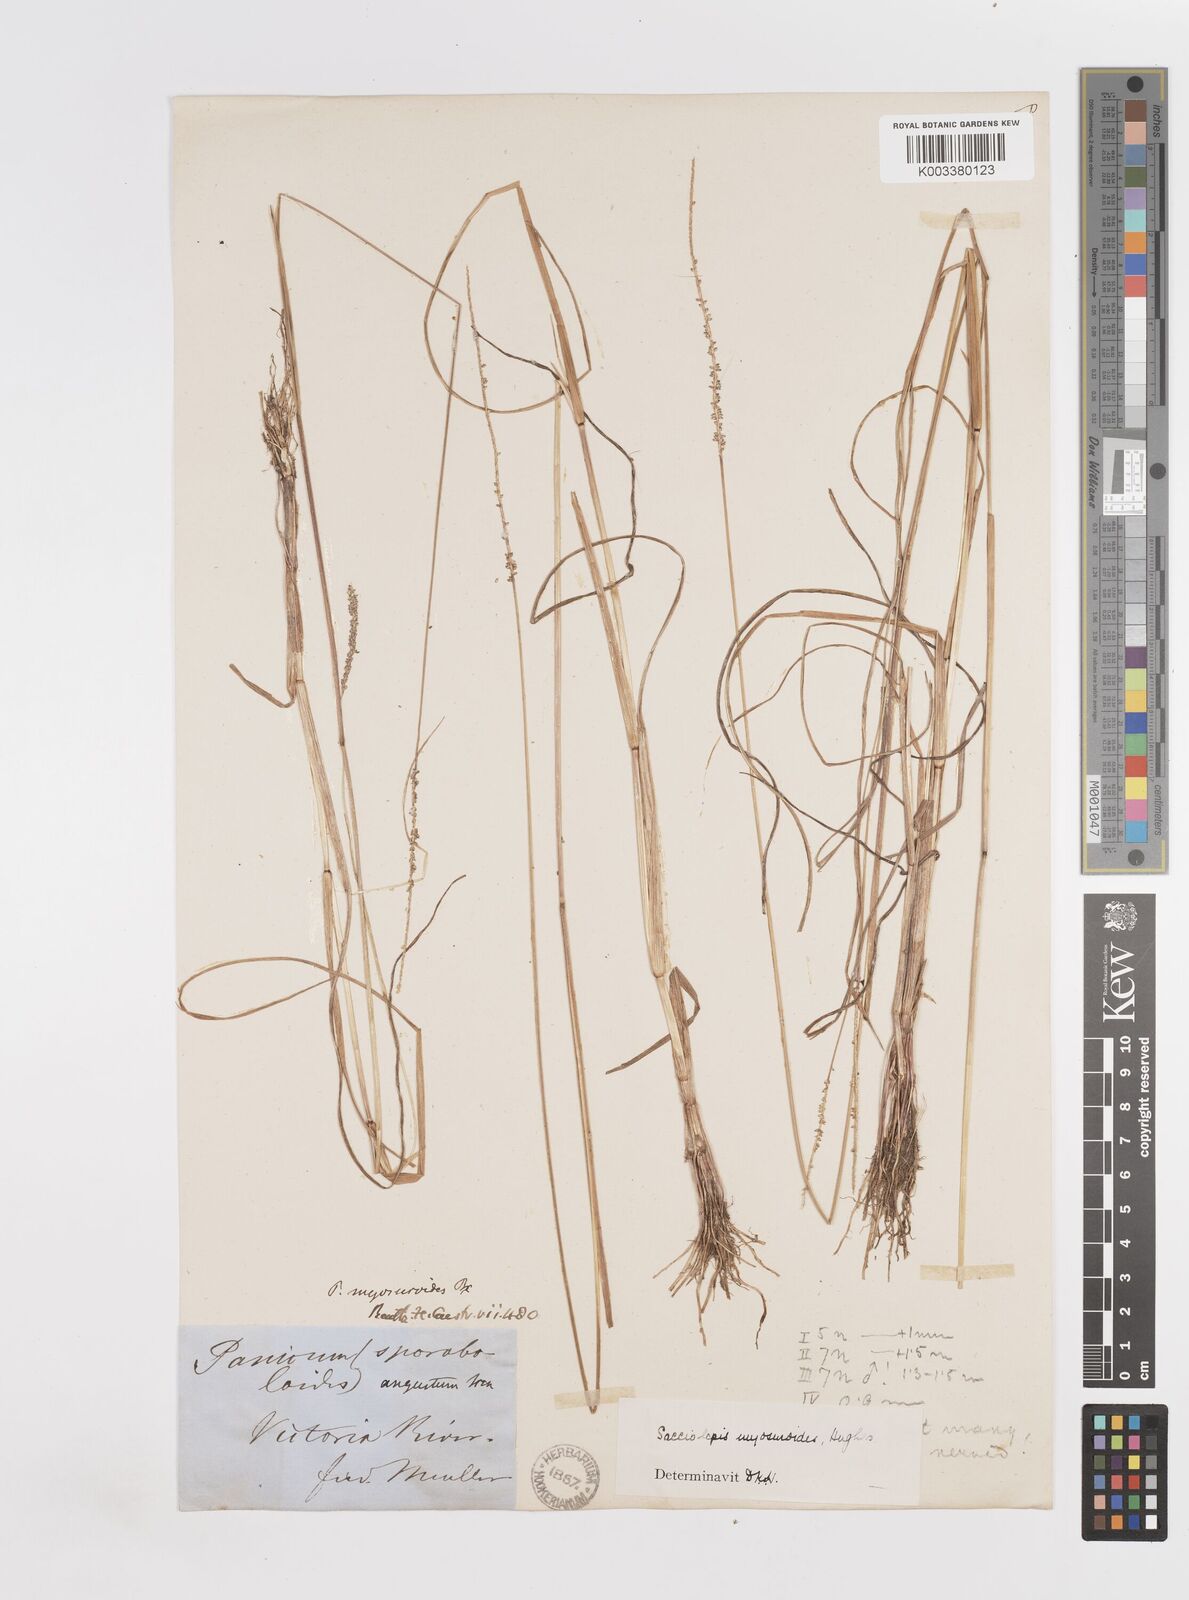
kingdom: Plantae
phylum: Tracheophyta
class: Liliopsida
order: Poales
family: Poaceae
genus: Sacciolepis
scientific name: Sacciolepis myosuroides
